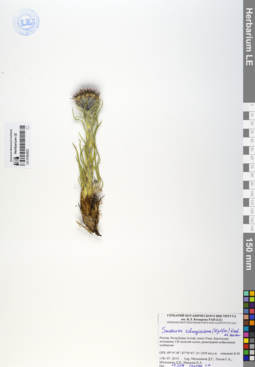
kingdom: Plantae
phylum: Tracheophyta
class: Magnoliopsida
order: Asterales
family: Asteraceae
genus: Saussurea
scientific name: Saussurea schanginiana
